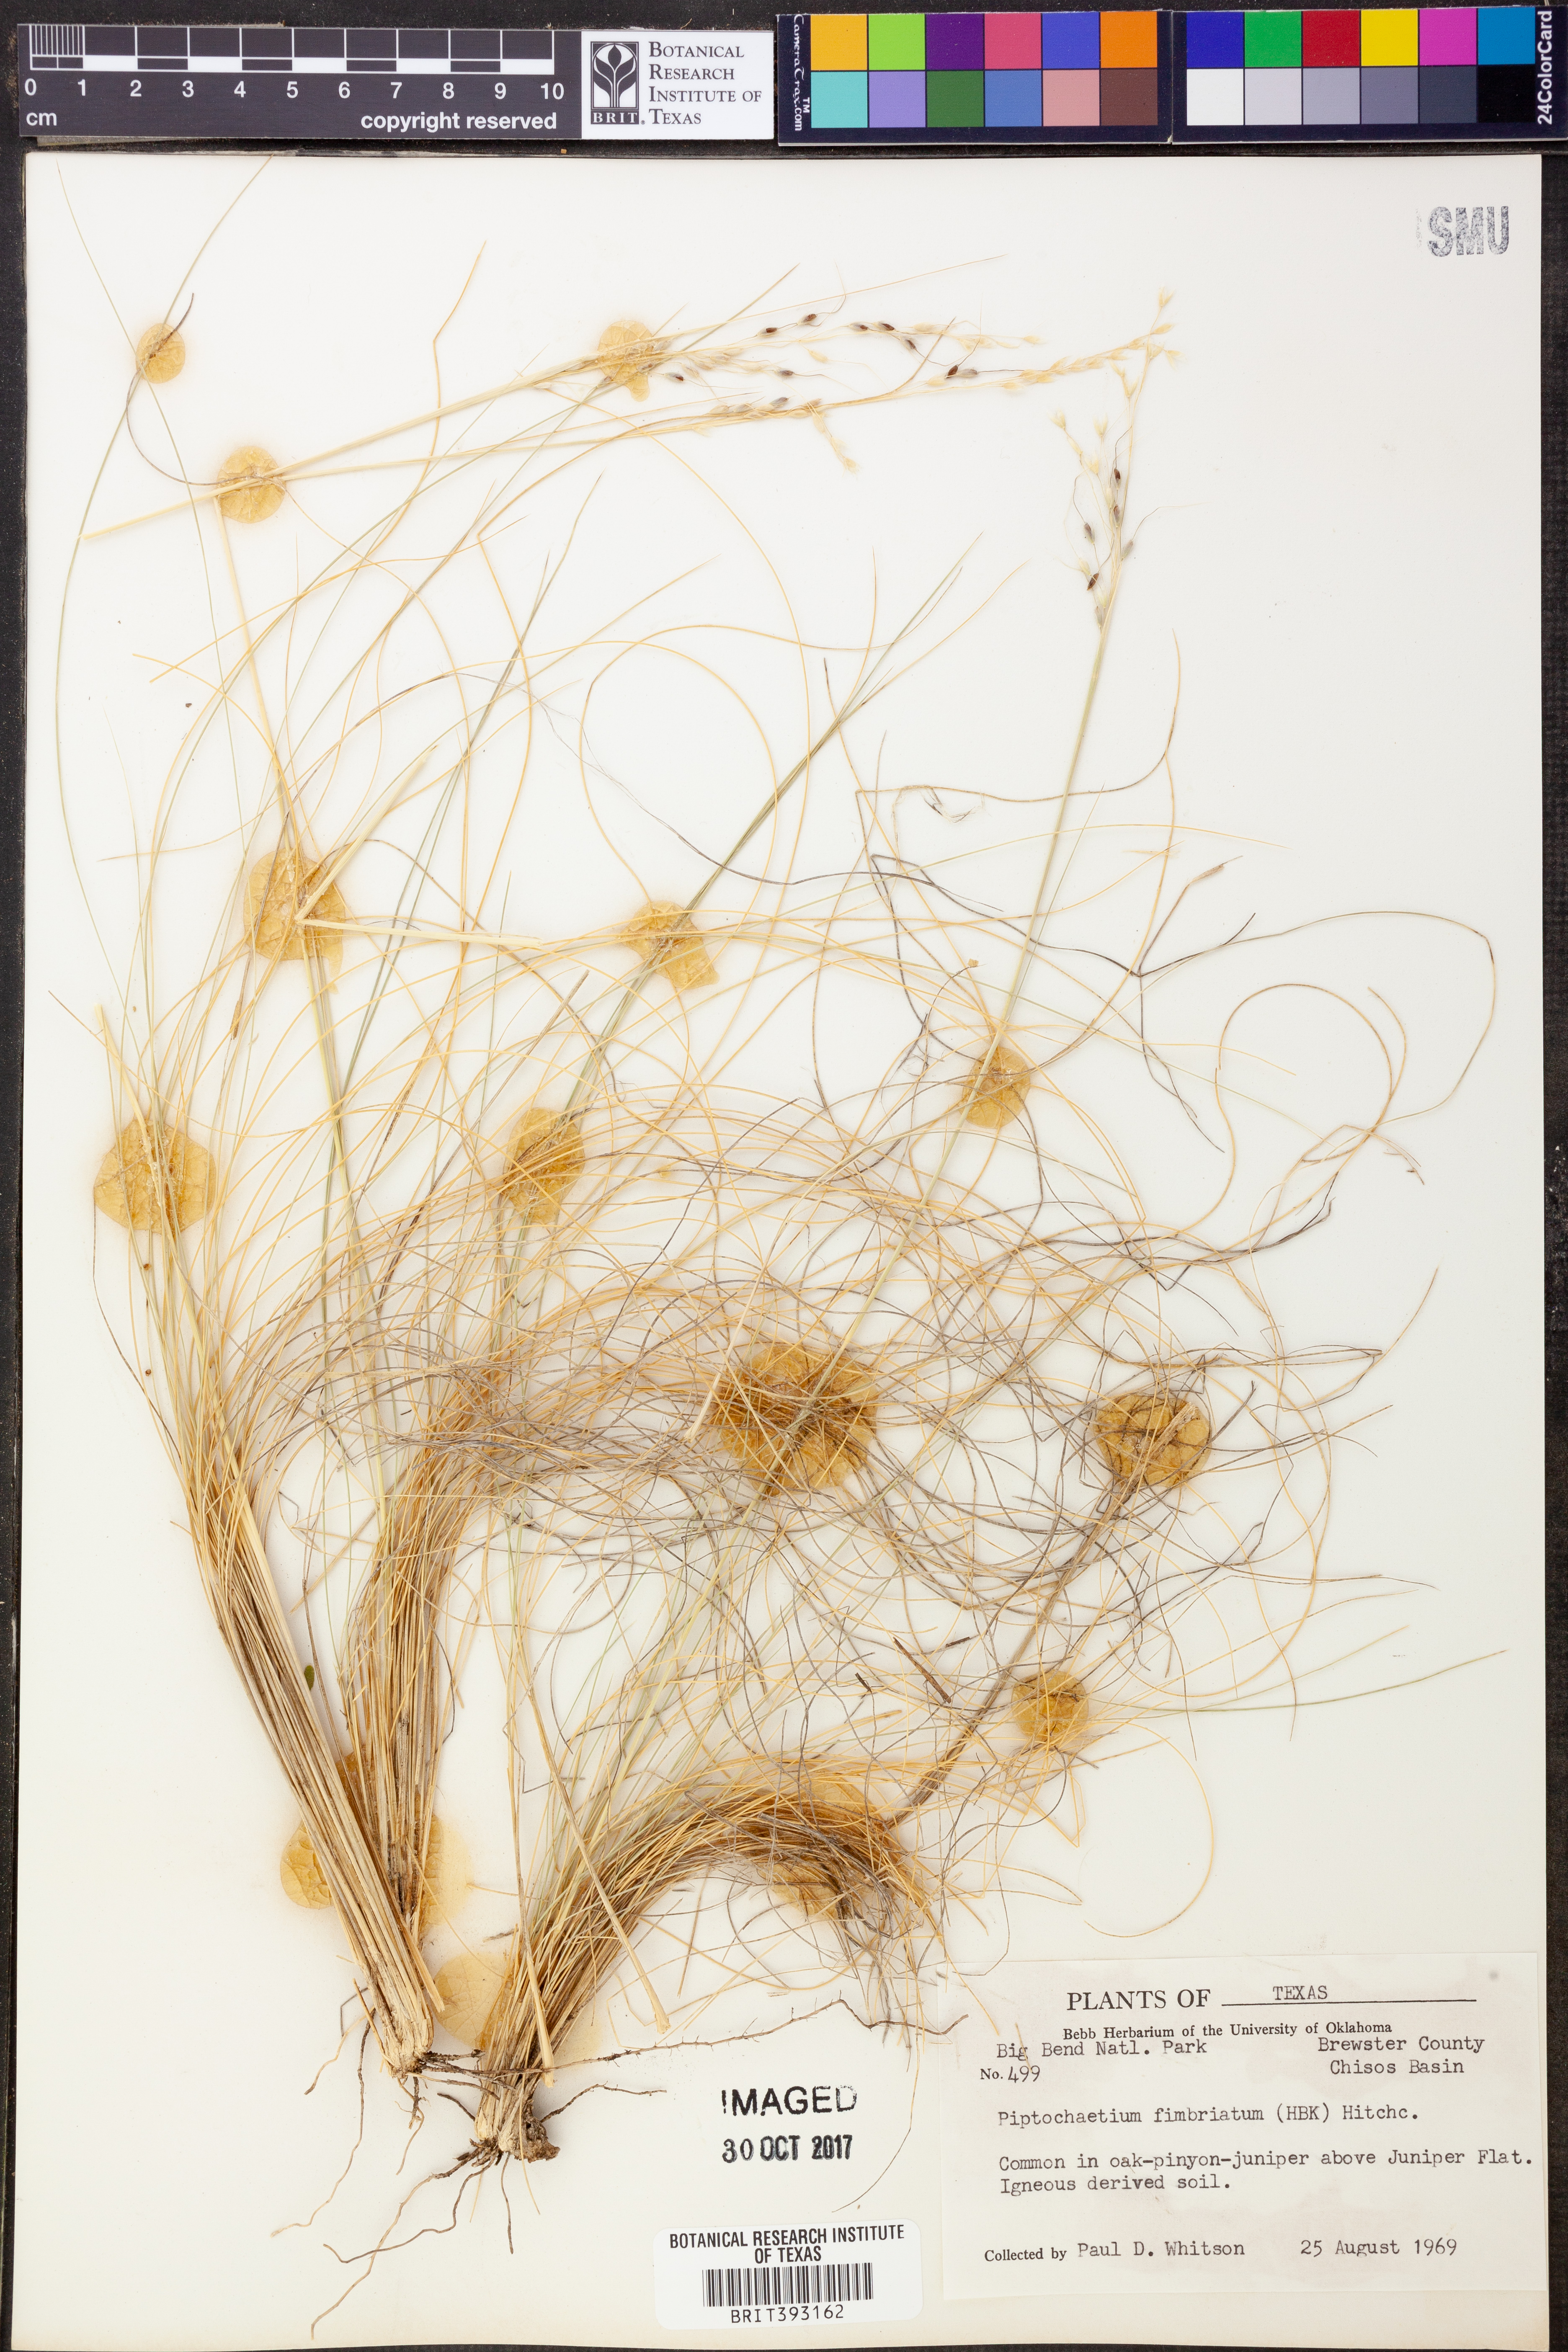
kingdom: Plantae
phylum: Tracheophyta
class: Liliopsida
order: Poales
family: Poaceae
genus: Piptochaetium
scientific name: Piptochaetium fimbriatum
